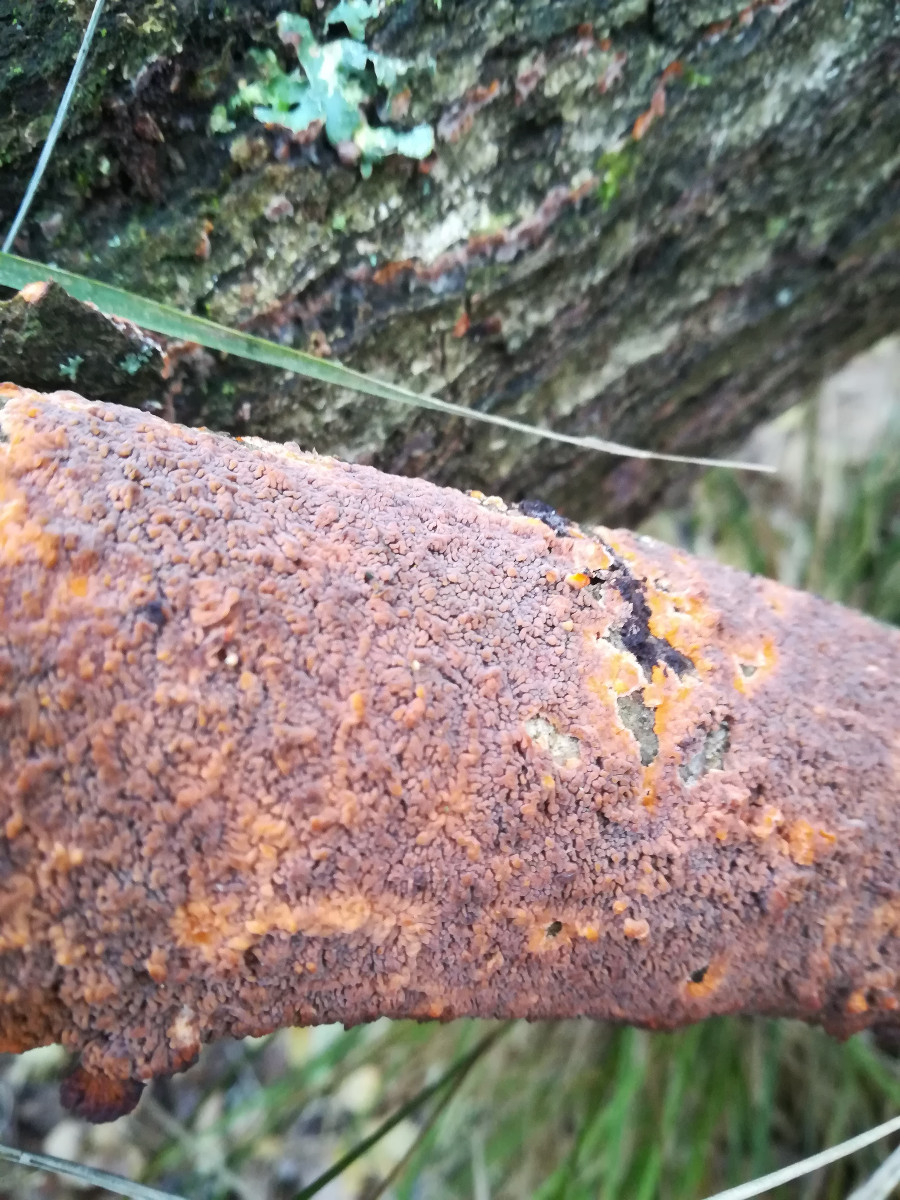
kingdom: Fungi
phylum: Basidiomycota
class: Agaricomycetes
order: Polyporales
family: Meruliaceae
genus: Phlebia
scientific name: Phlebia radiata
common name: stråle-åresvamp
